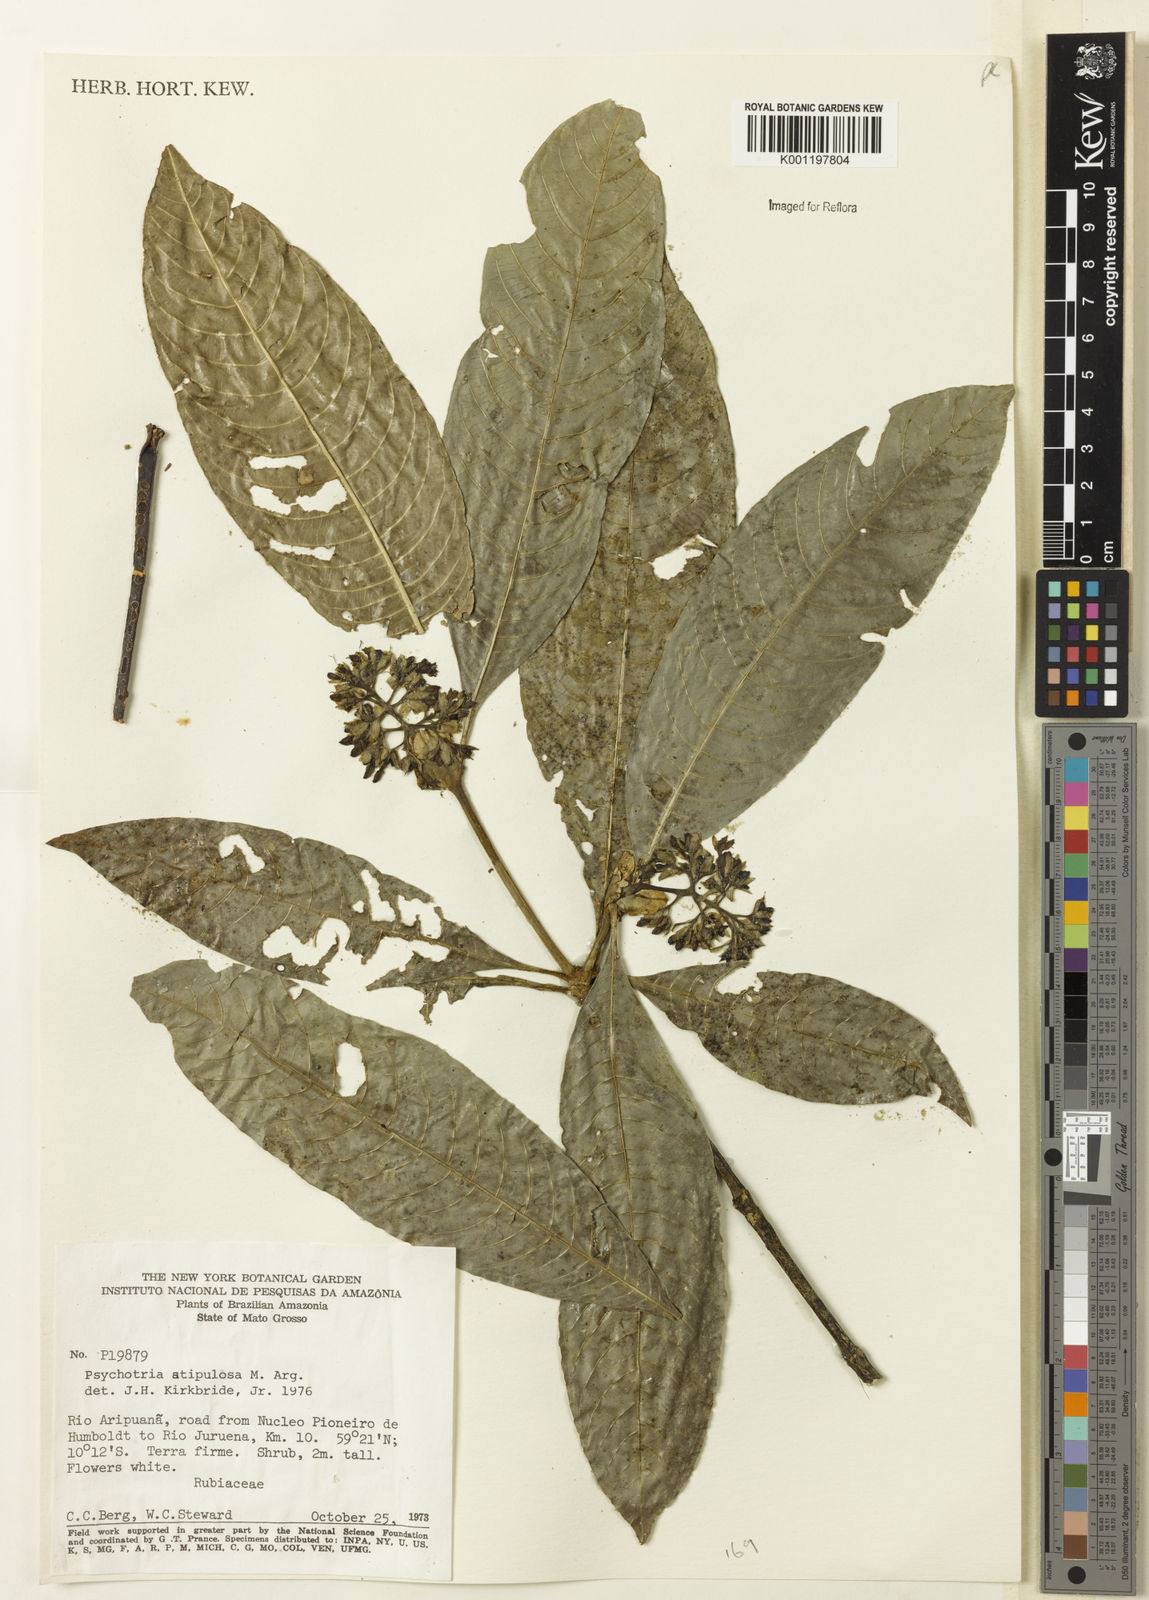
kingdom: Plantae
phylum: Tracheophyta
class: Magnoliopsida
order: Gentianales
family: Rubiaceae
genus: Psychotria
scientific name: Psychotria
